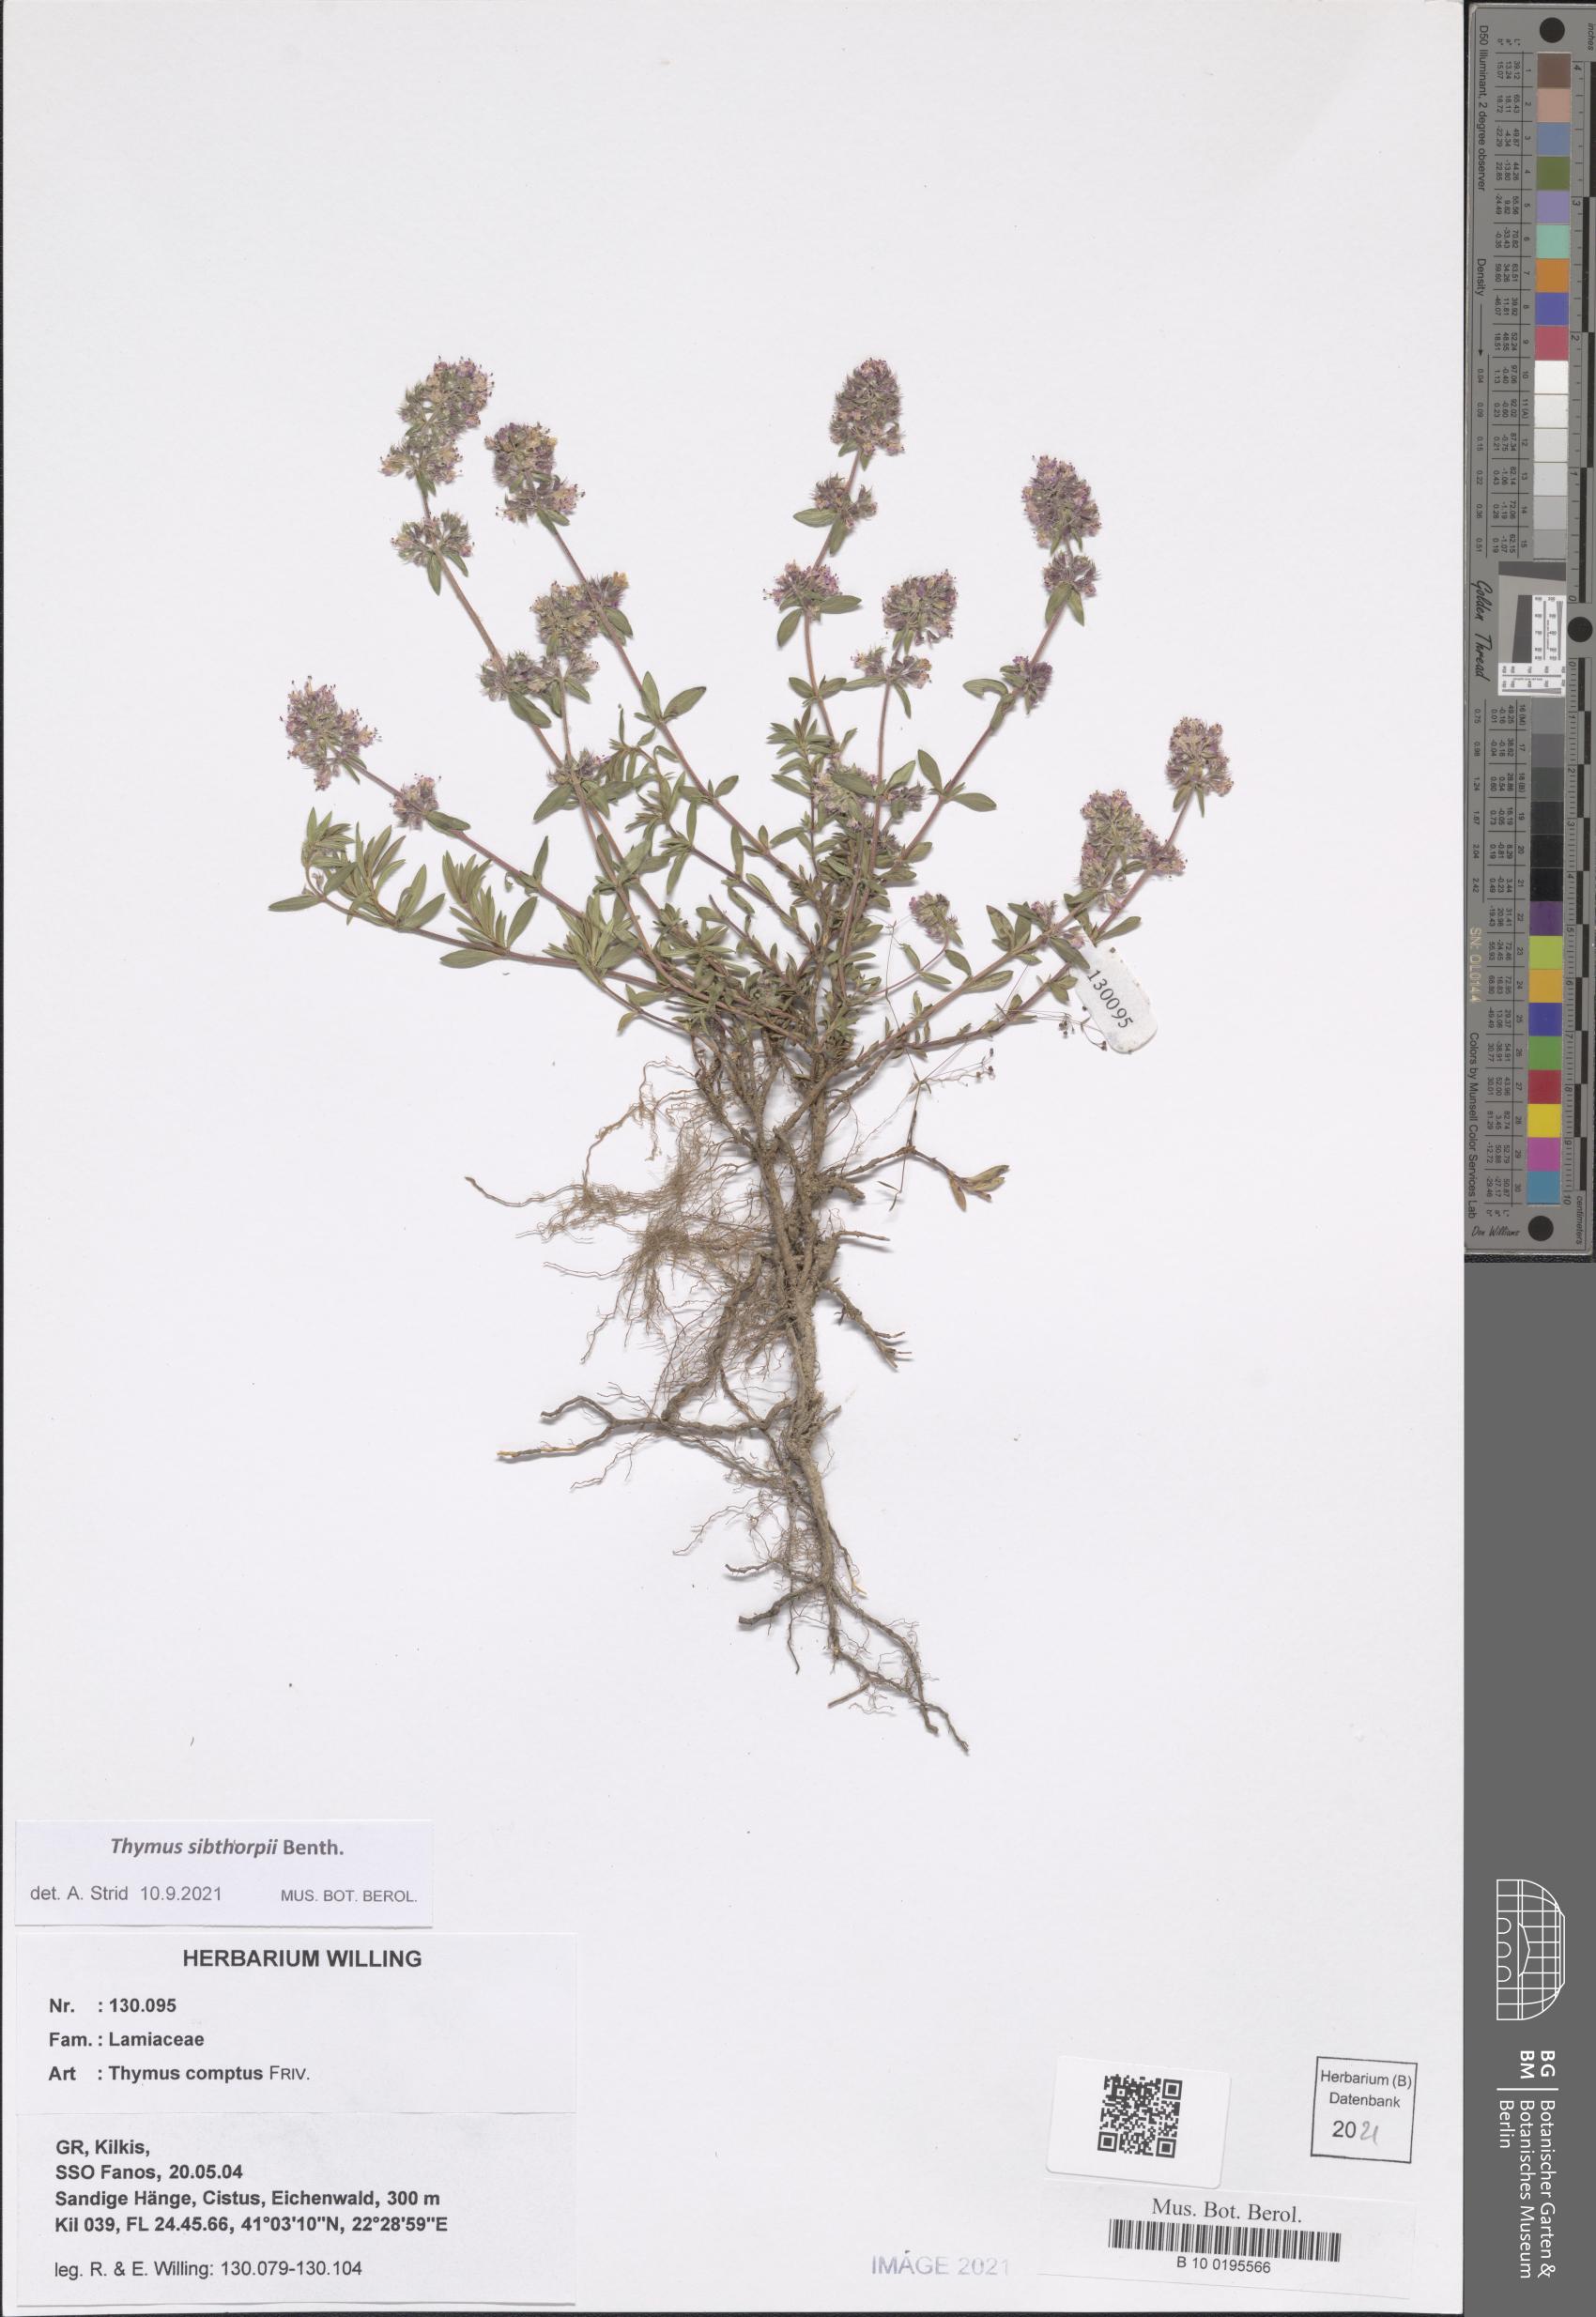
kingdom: Plantae
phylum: Tracheophyta
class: Magnoliopsida
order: Lamiales
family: Lamiaceae
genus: Thymus
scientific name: Thymus sibthorpii
